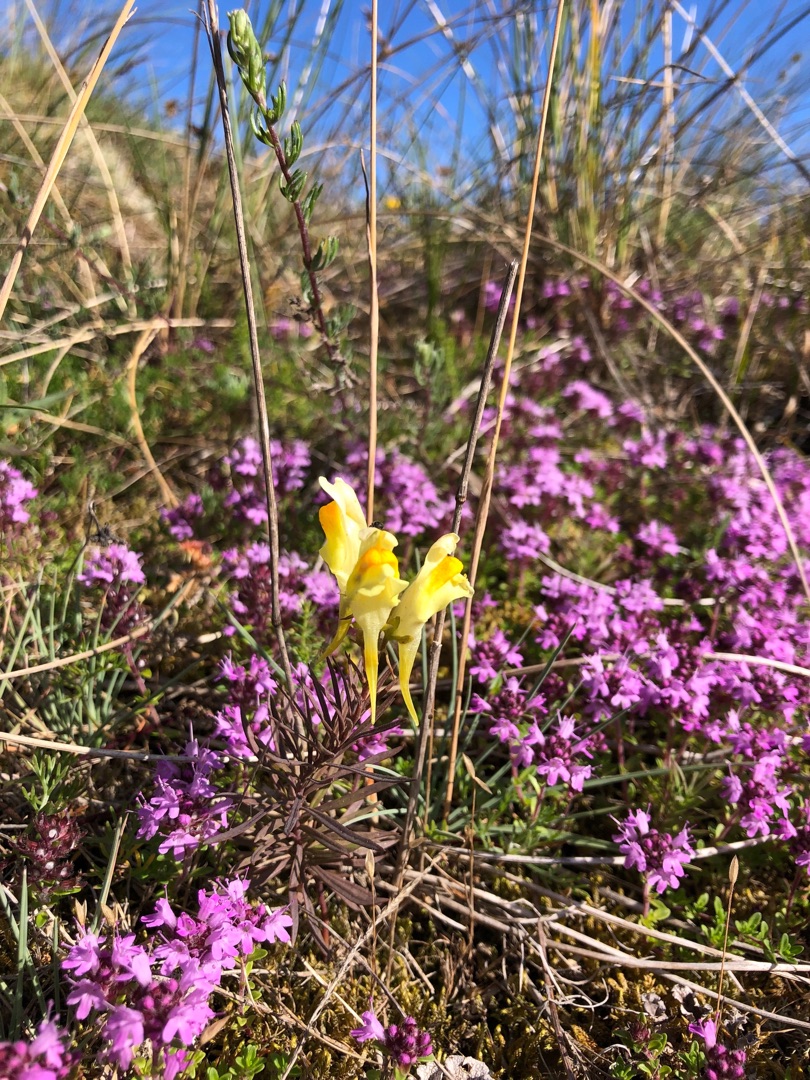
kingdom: Plantae
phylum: Tracheophyta
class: Magnoliopsida
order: Lamiales
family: Plantaginaceae
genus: Linaria
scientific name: Linaria vulgaris
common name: Almindelig torskemund
